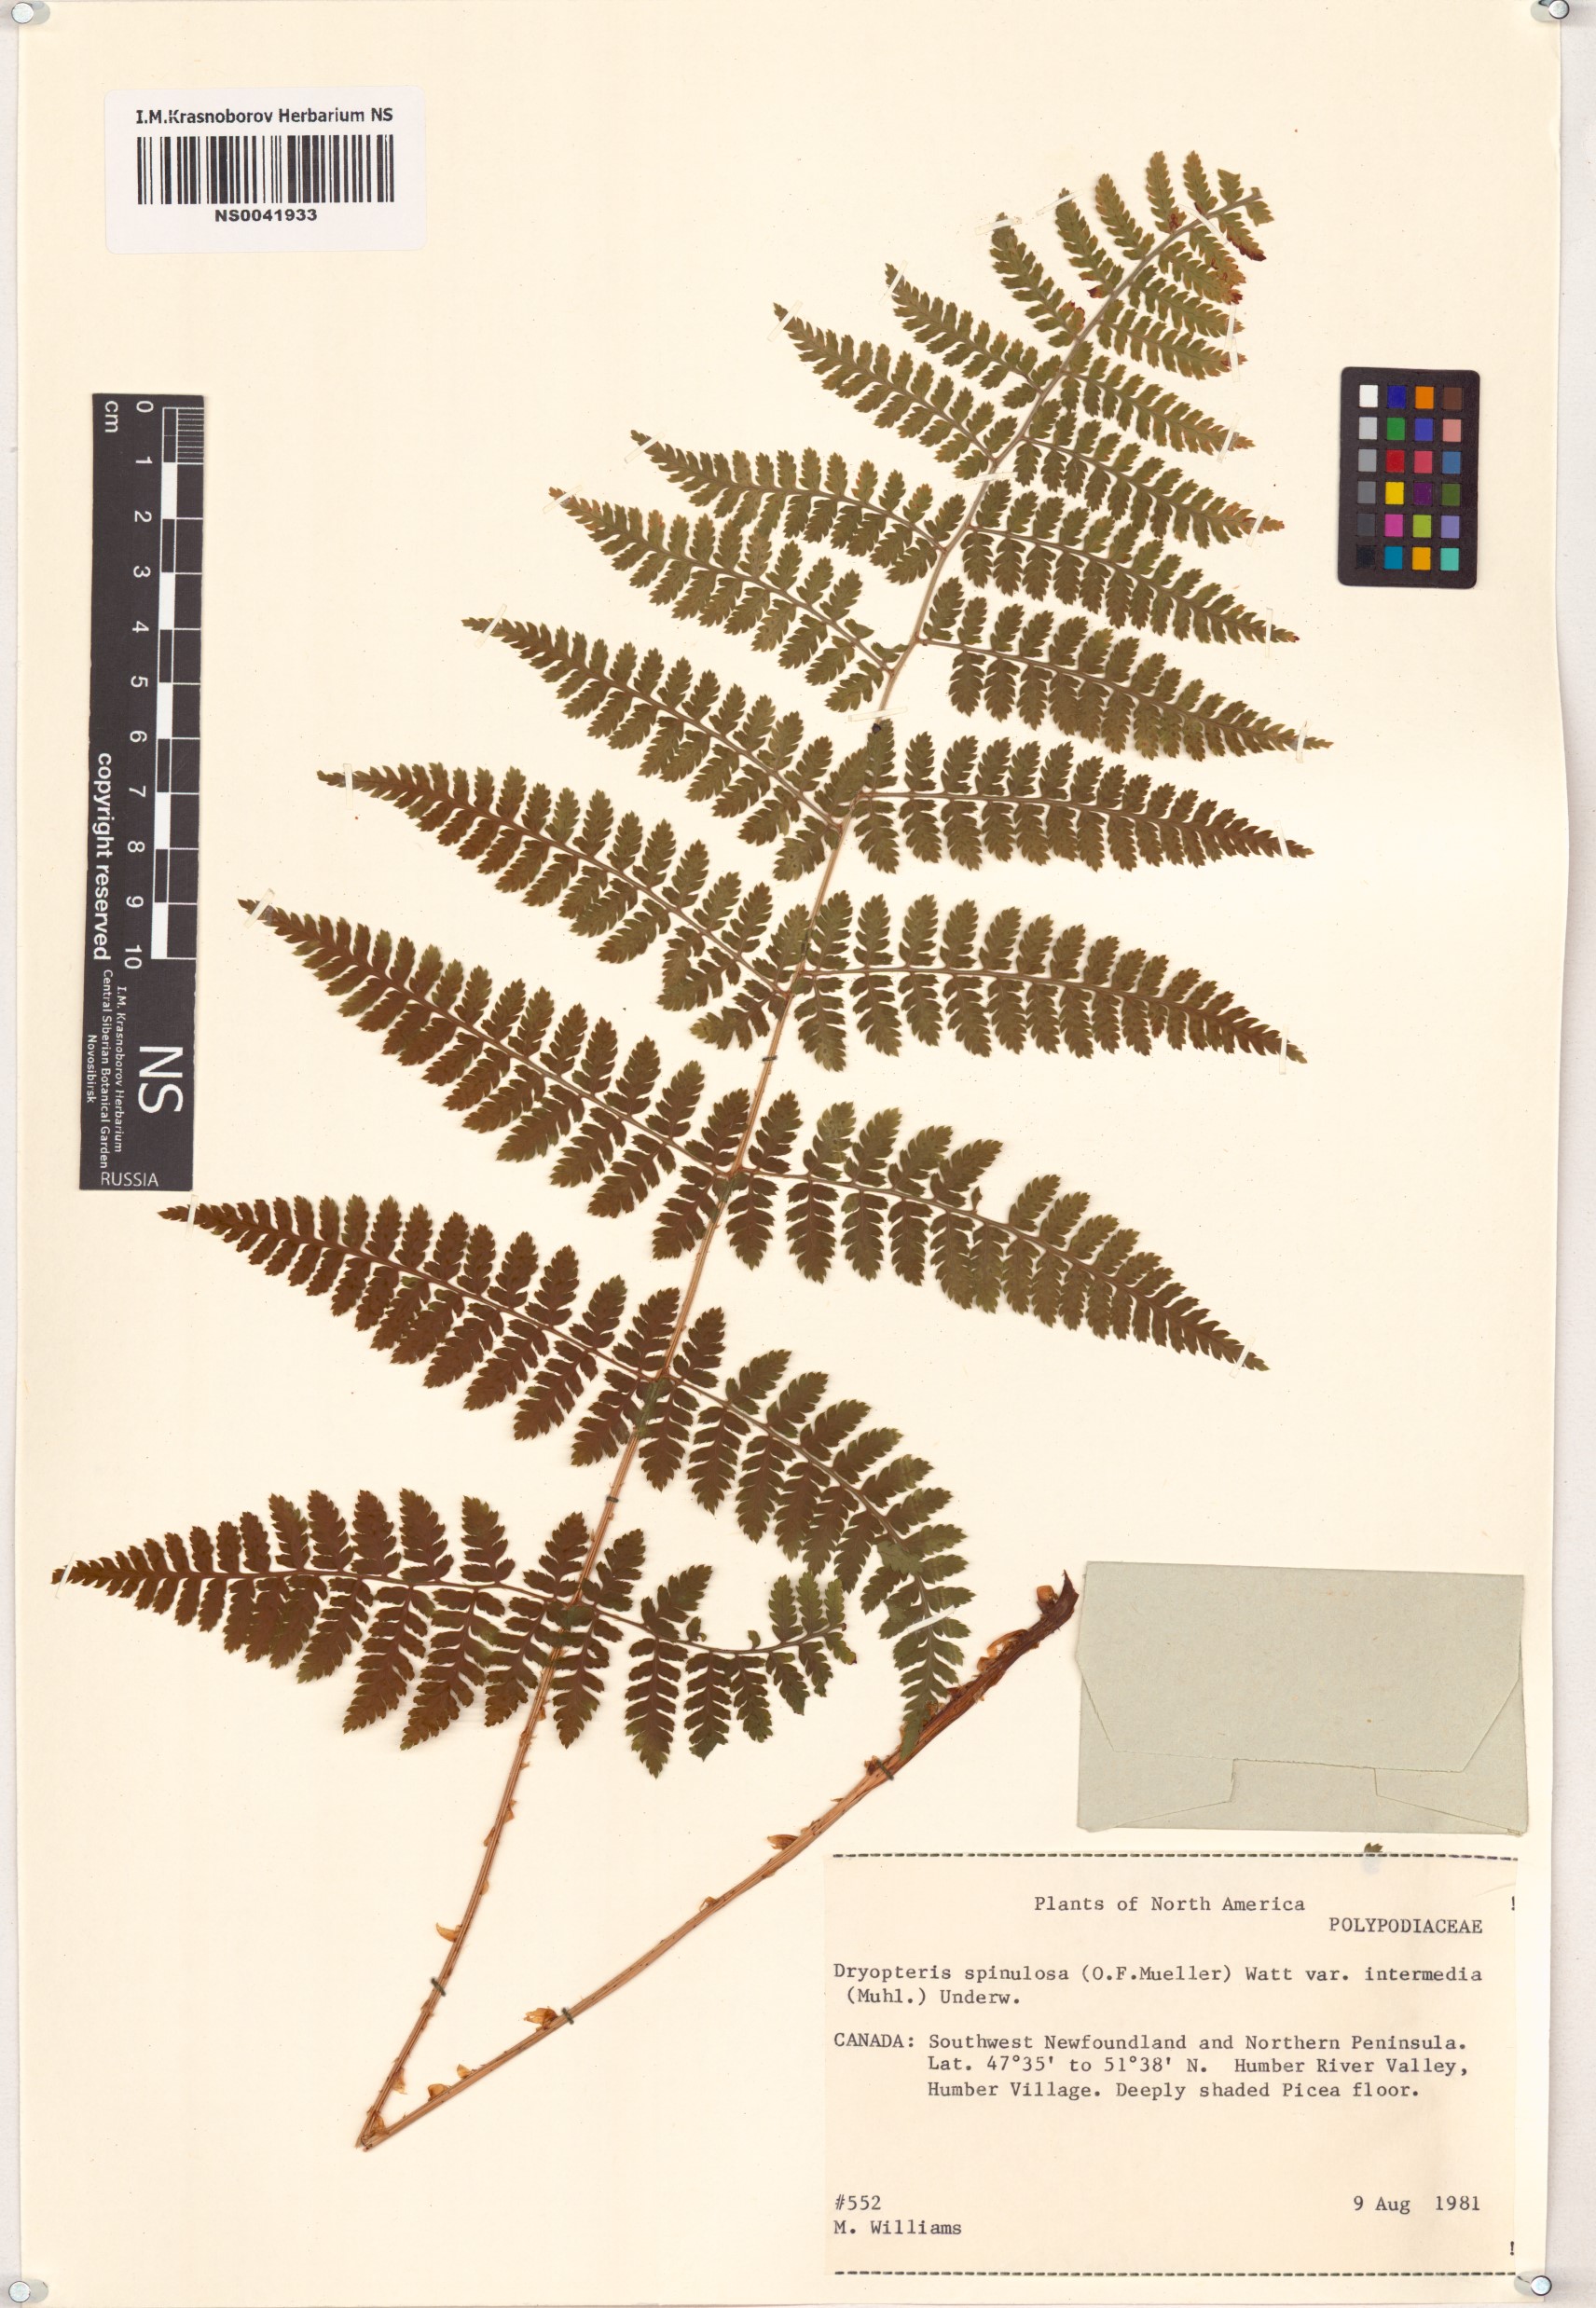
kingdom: Plantae
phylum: Tracheophyta
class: Polypodiopsida
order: Polypodiales
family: Dryopteridaceae
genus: Dryopteris
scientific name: Dryopteris intermedia
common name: Evergreen wood fern
